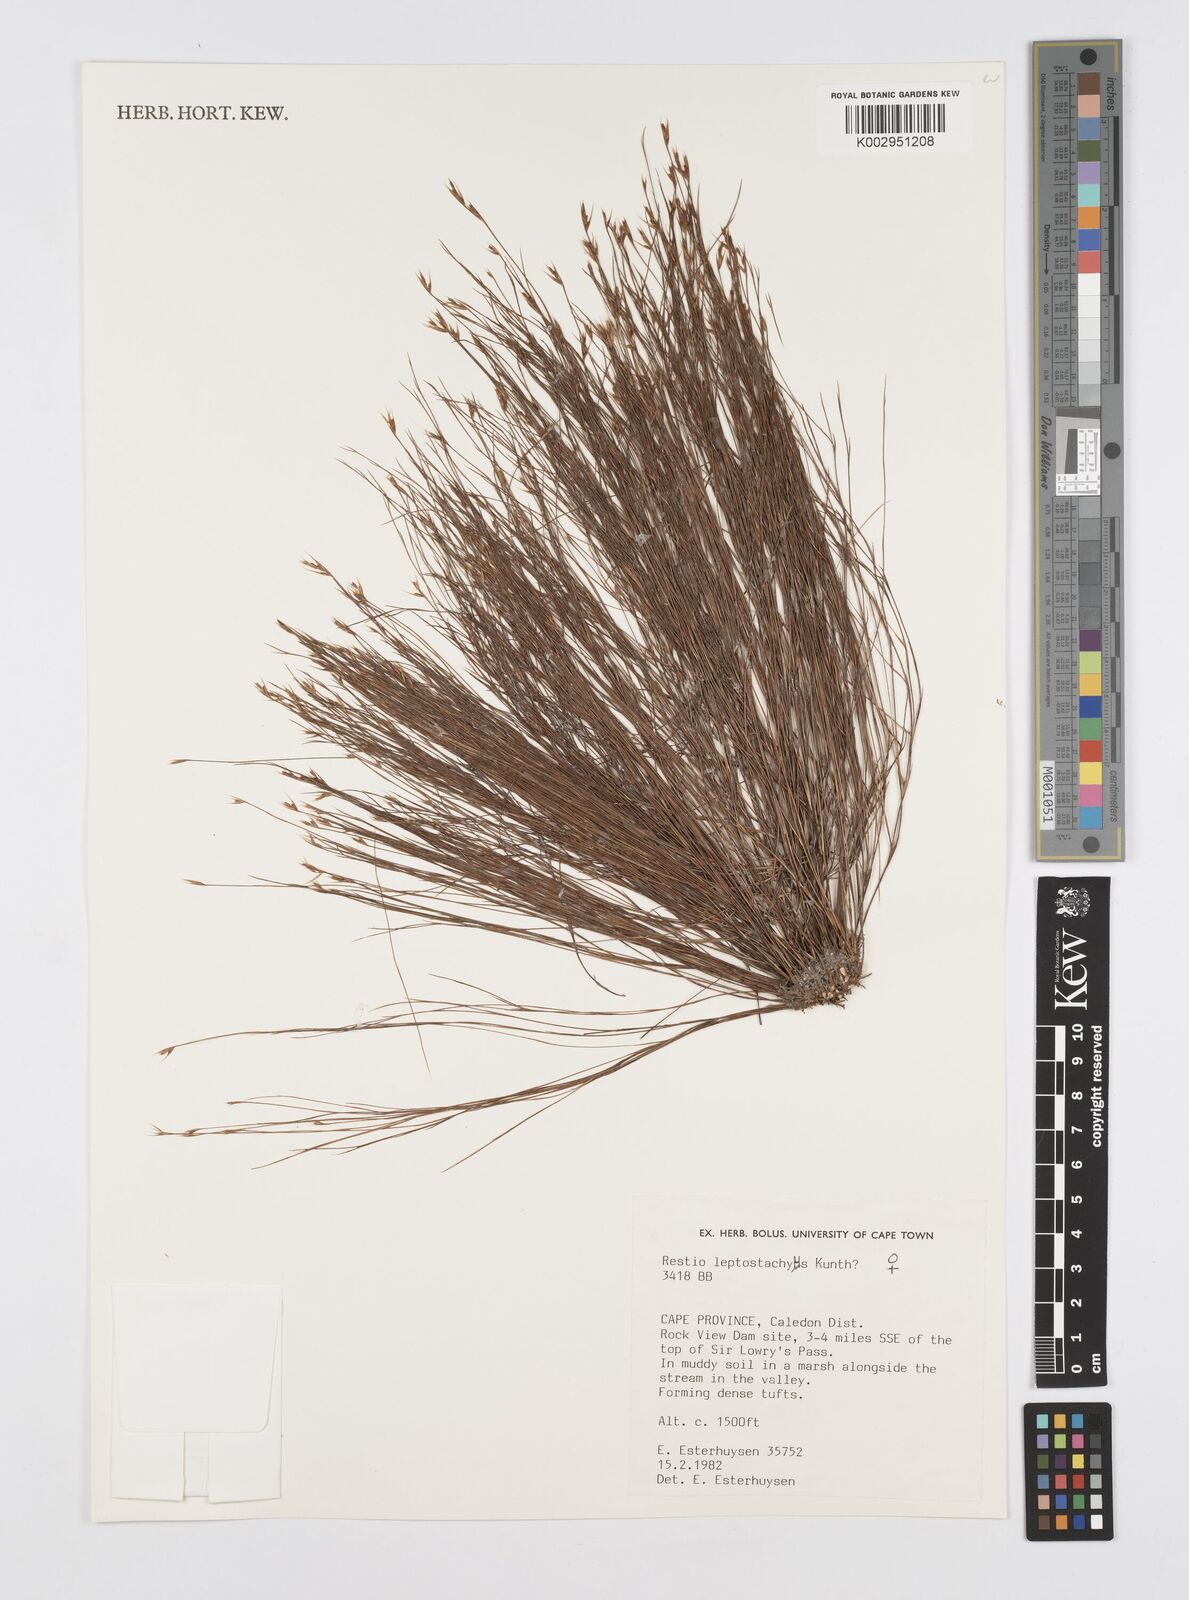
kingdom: Plantae
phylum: Tracheophyta
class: Liliopsida
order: Poales
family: Restionaceae
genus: Restio
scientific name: Restio leptostachyus
